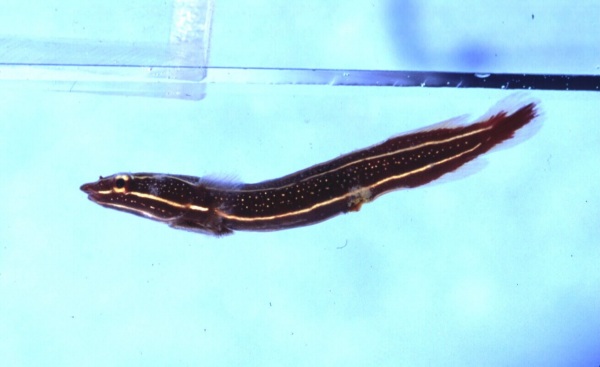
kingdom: Animalia
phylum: Chordata
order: Gobiesociformes
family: Gobiesocidae
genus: Lepadichthys
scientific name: Lepadichthys
